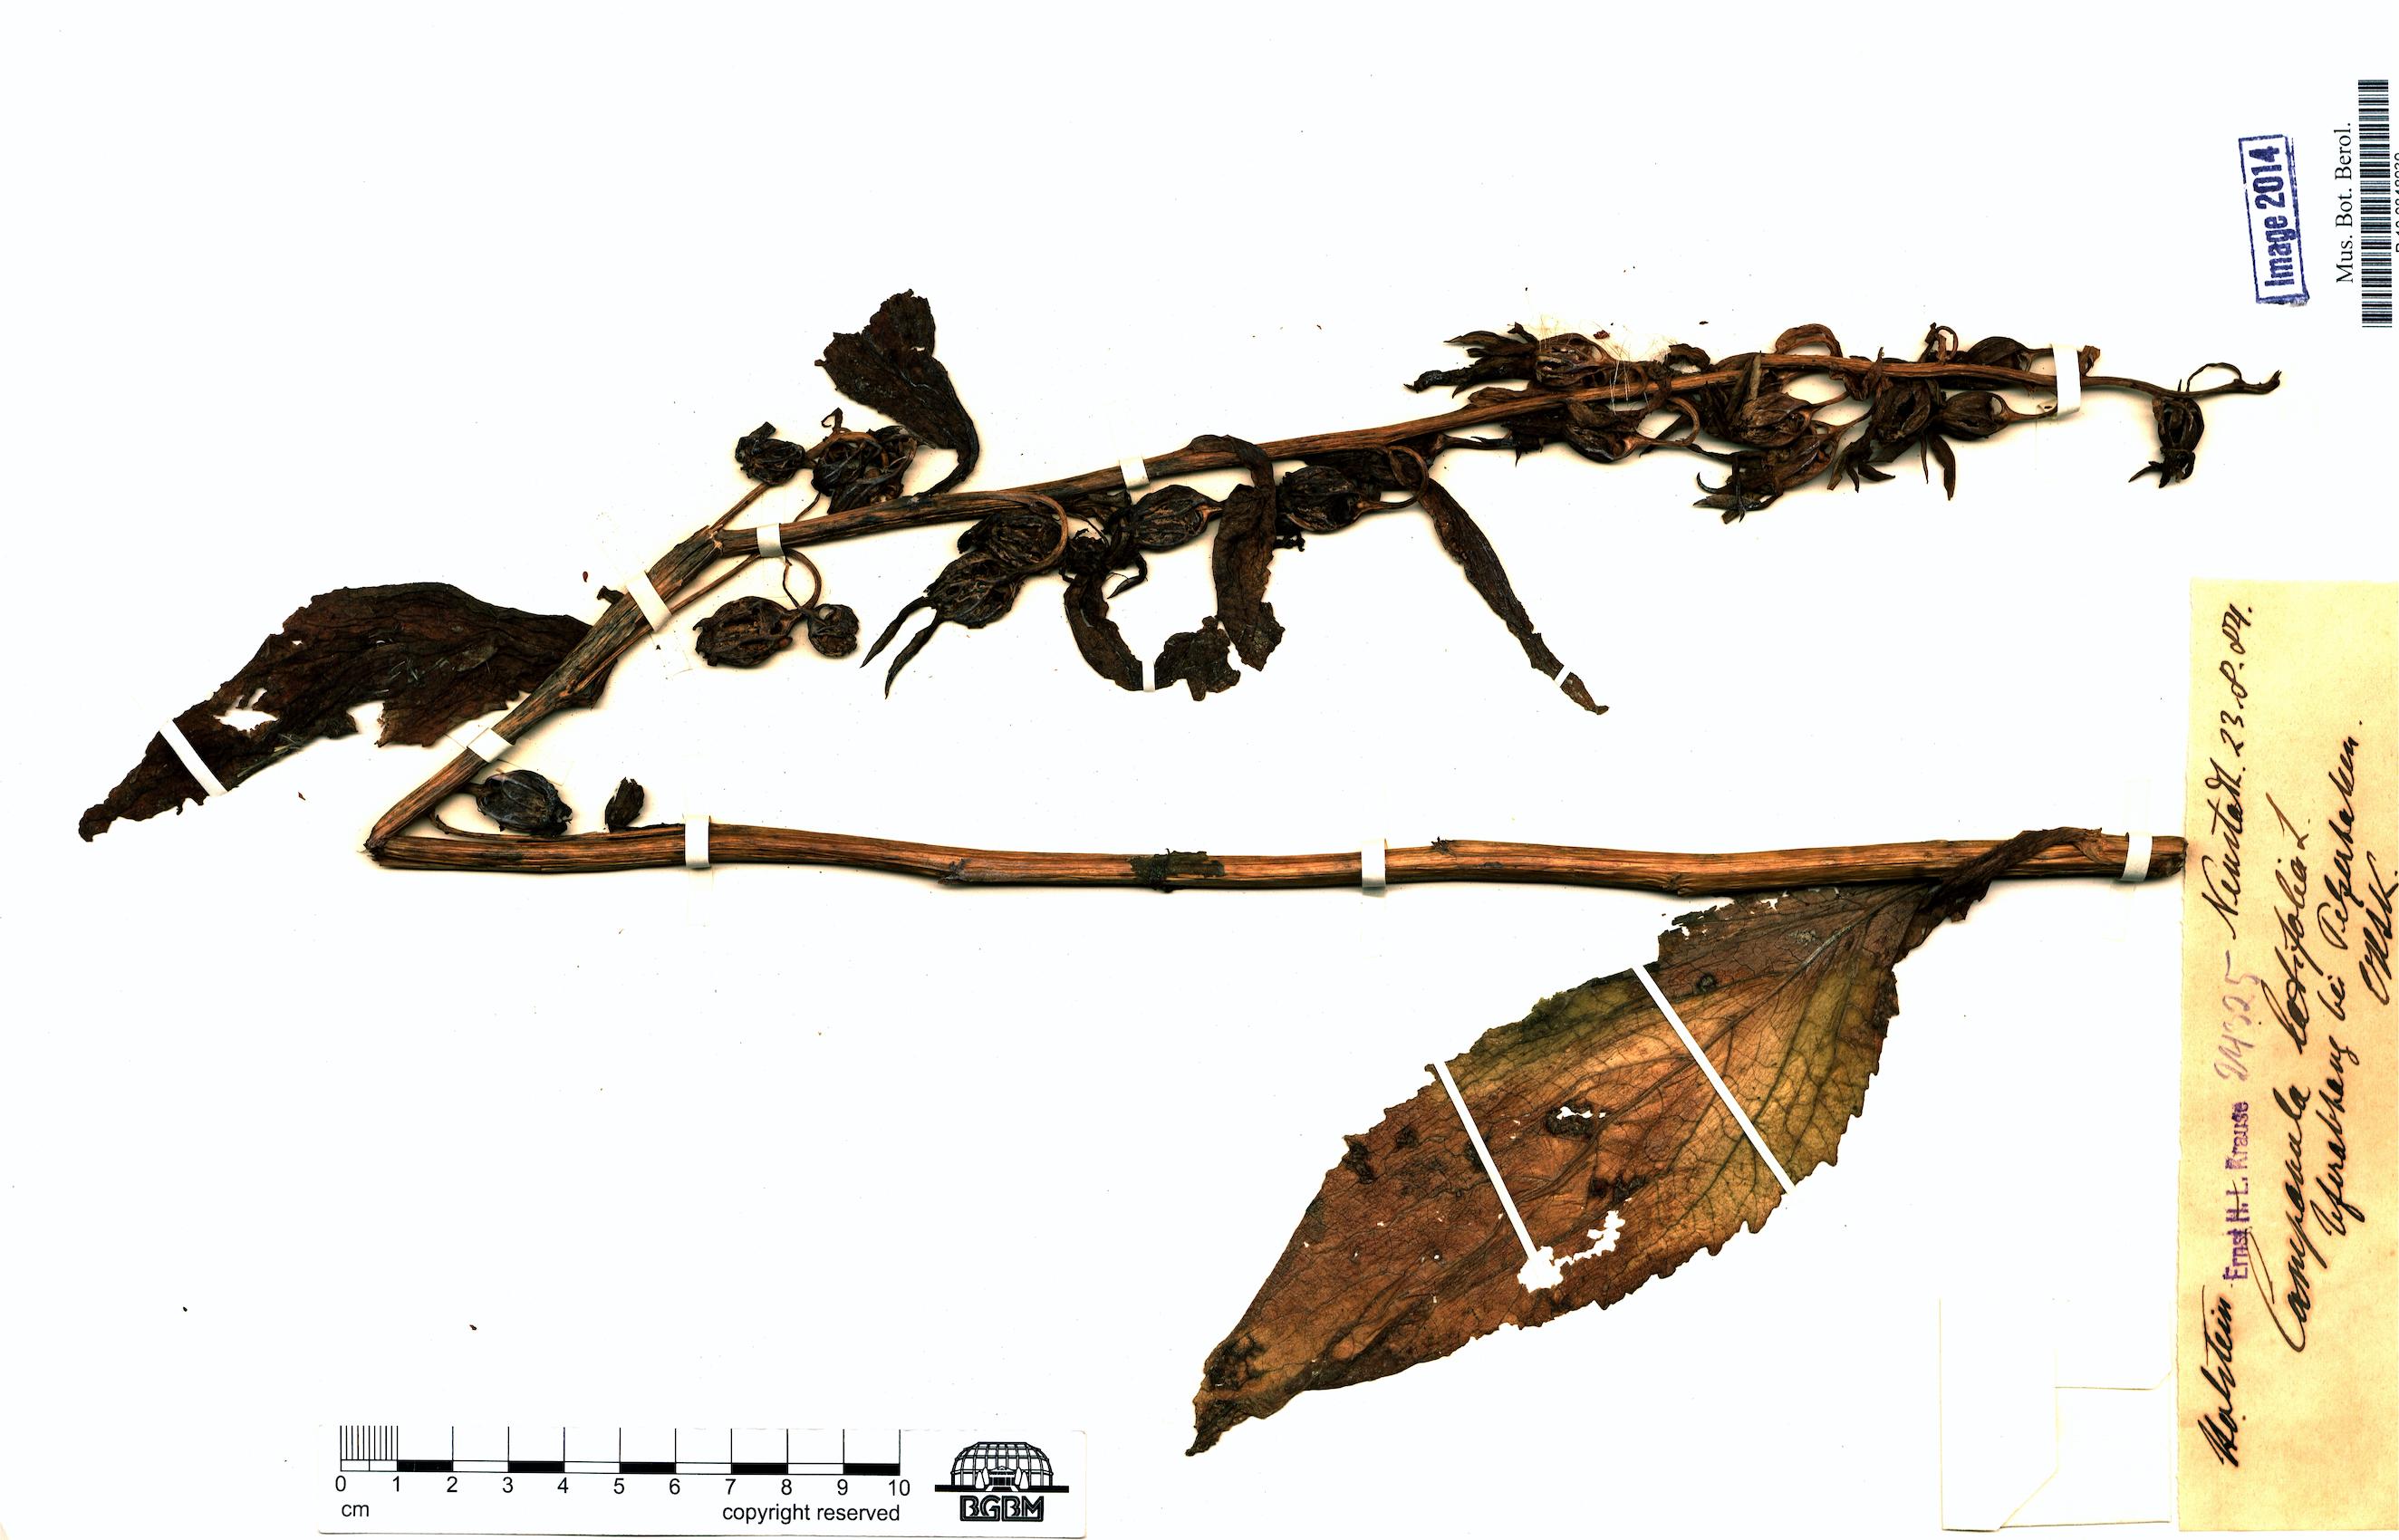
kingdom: Plantae
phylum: Tracheophyta
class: Magnoliopsida
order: Asterales
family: Campanulaceae
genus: Campanula
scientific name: Campanula latifolia
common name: Giant bellflower
